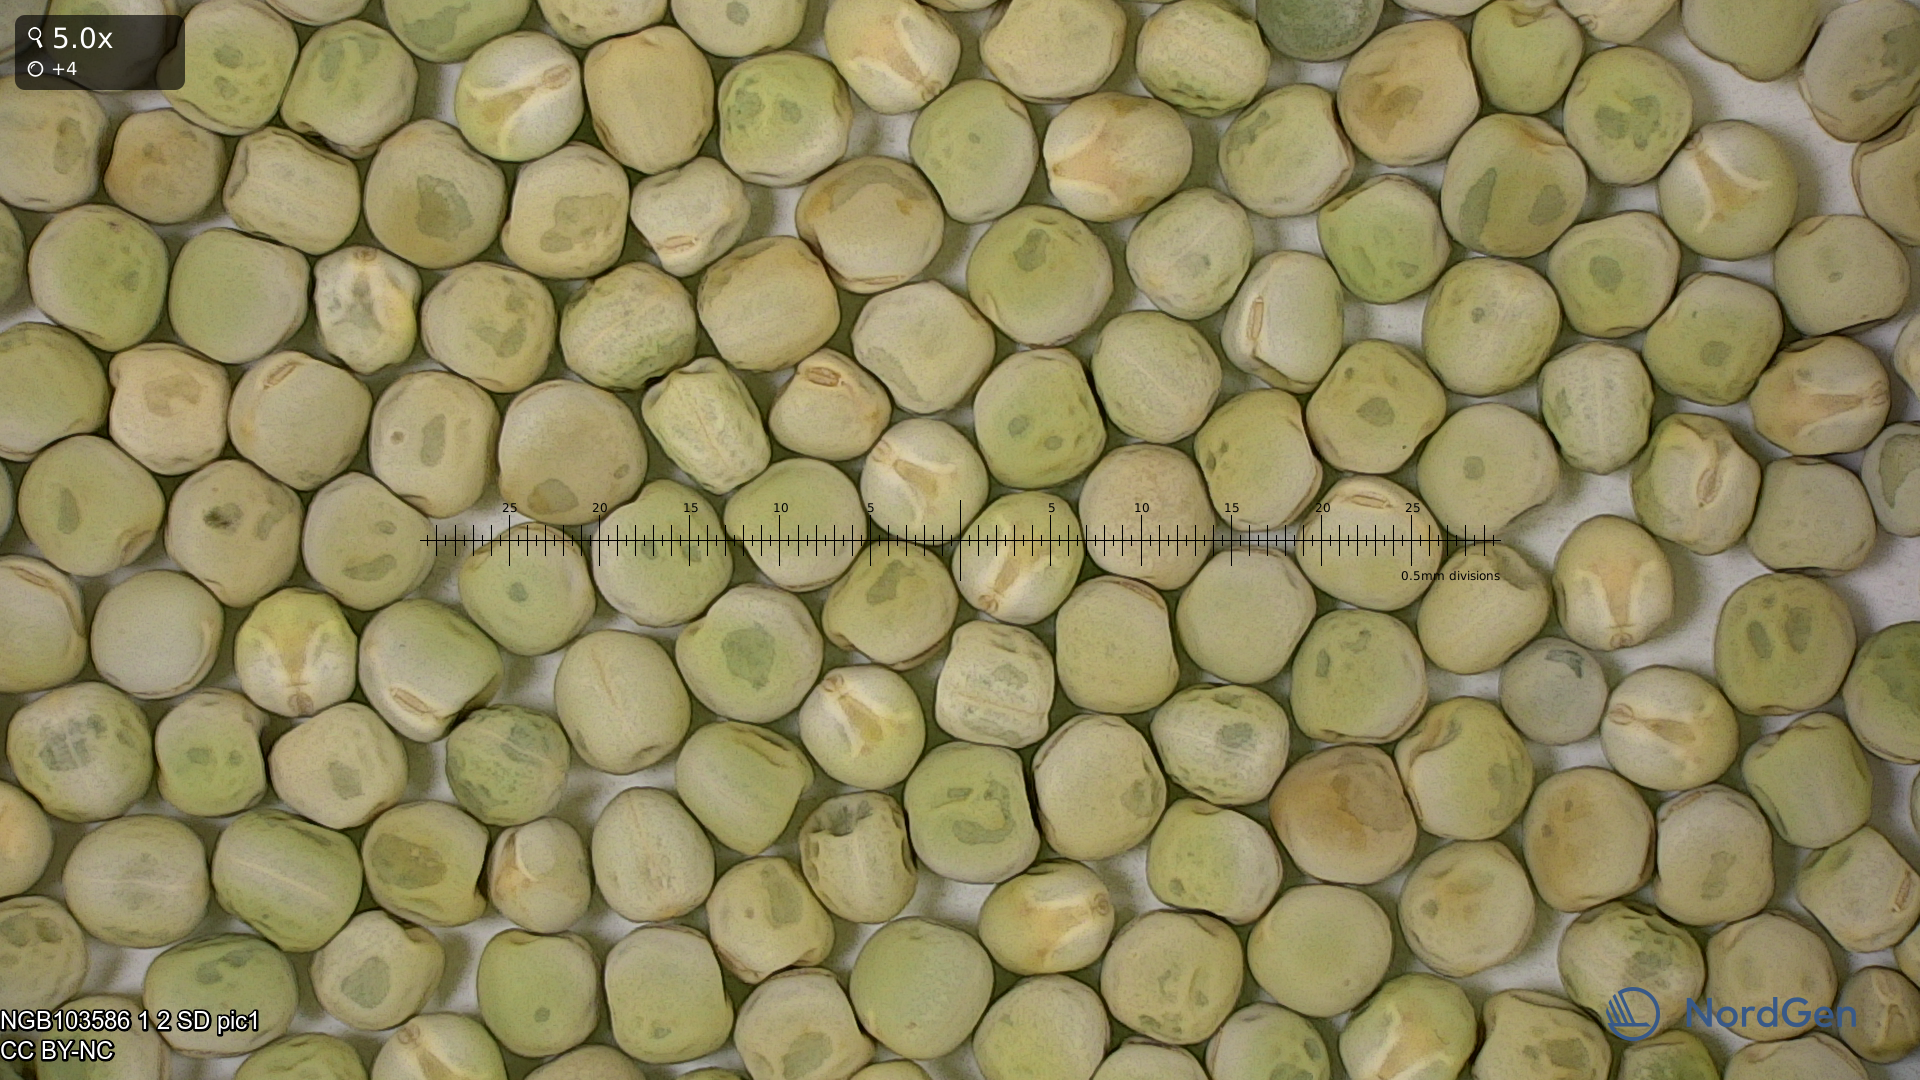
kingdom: Plantae
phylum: Tracheophyta
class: Magnoliopsida
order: Fabales
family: Fabaceae
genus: Lathyrus
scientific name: Lathyrus oleraceus
